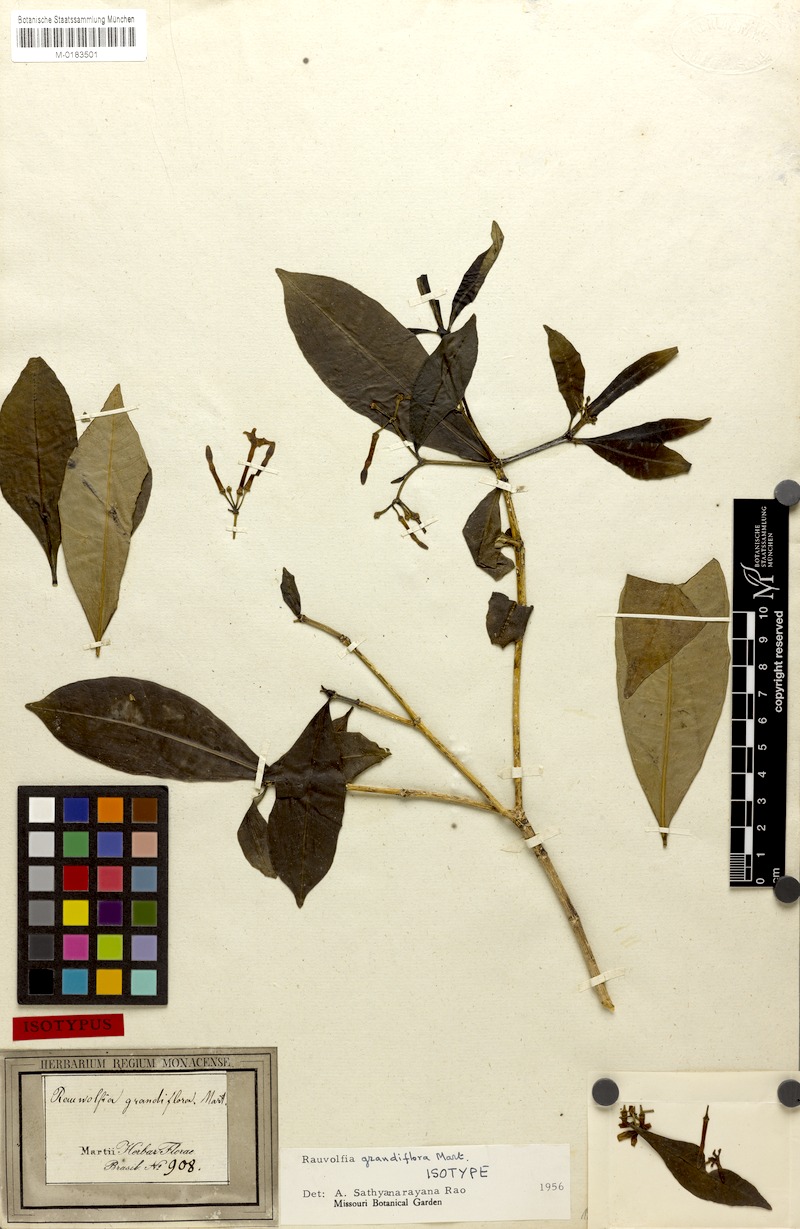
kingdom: Plantae
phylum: Tracheophyta
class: Magnoliopsida
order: Gentianales
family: Apocynaceae
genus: Rauvolfia
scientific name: Rauvolfia grandiflora
